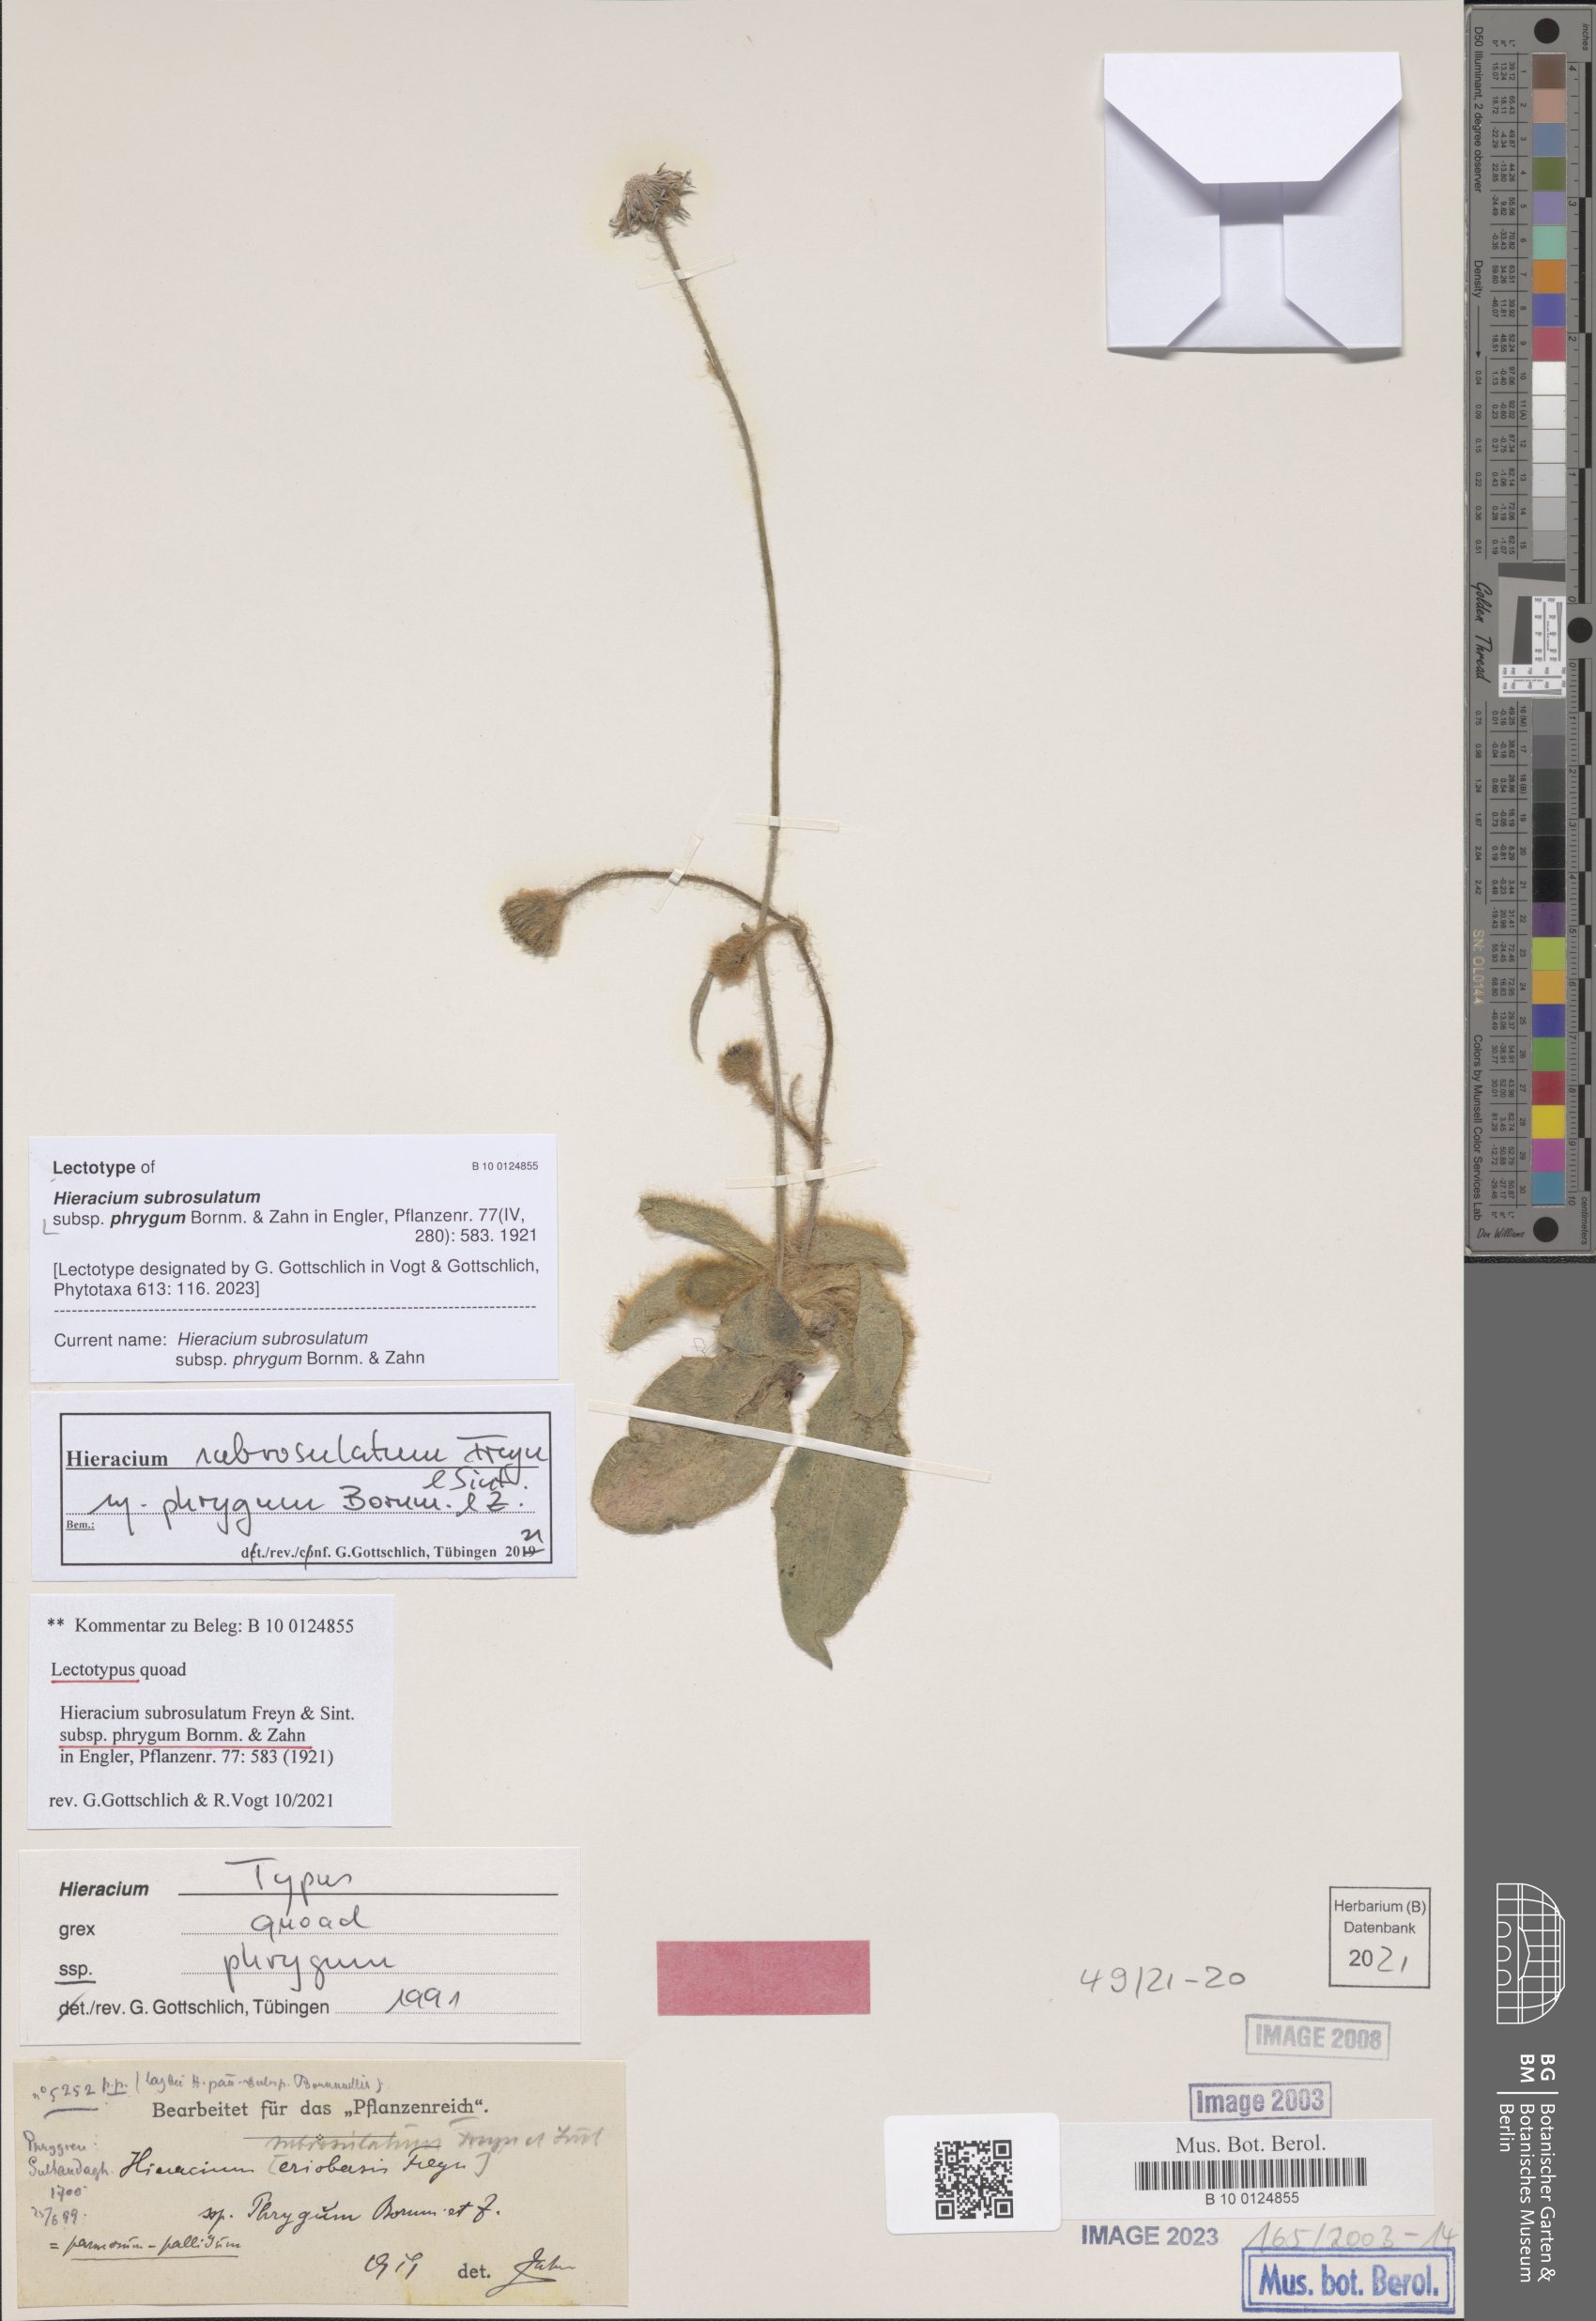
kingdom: Plantae
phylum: Tracheophyta
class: Magnoliopsida
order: Asterales
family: Asteraceae
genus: Hieracium
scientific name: Hieracium subrosulatum
